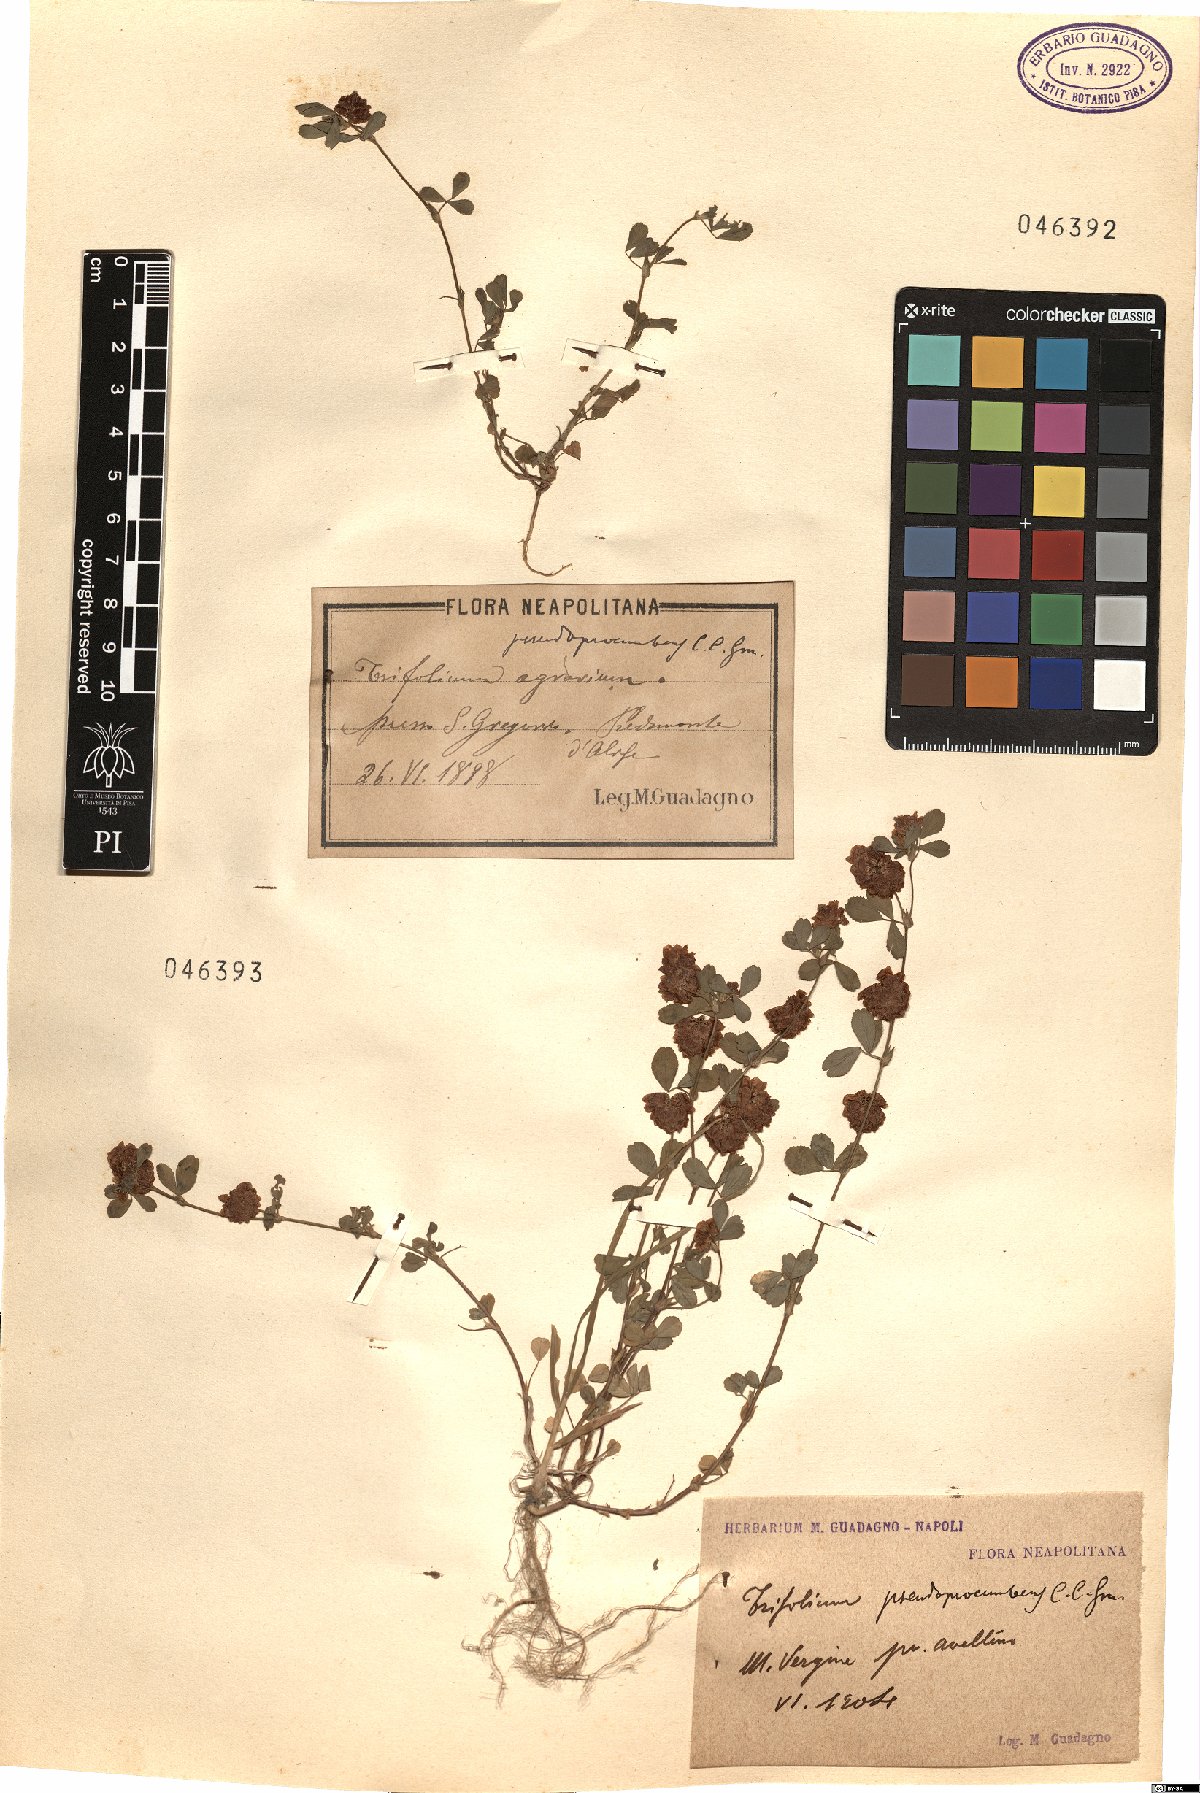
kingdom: Plantae
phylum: Tracheophyta
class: Magnoliopsida
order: Fabales
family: Fabaceae
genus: Trifolium
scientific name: Trifolium campestre
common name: Field clover
